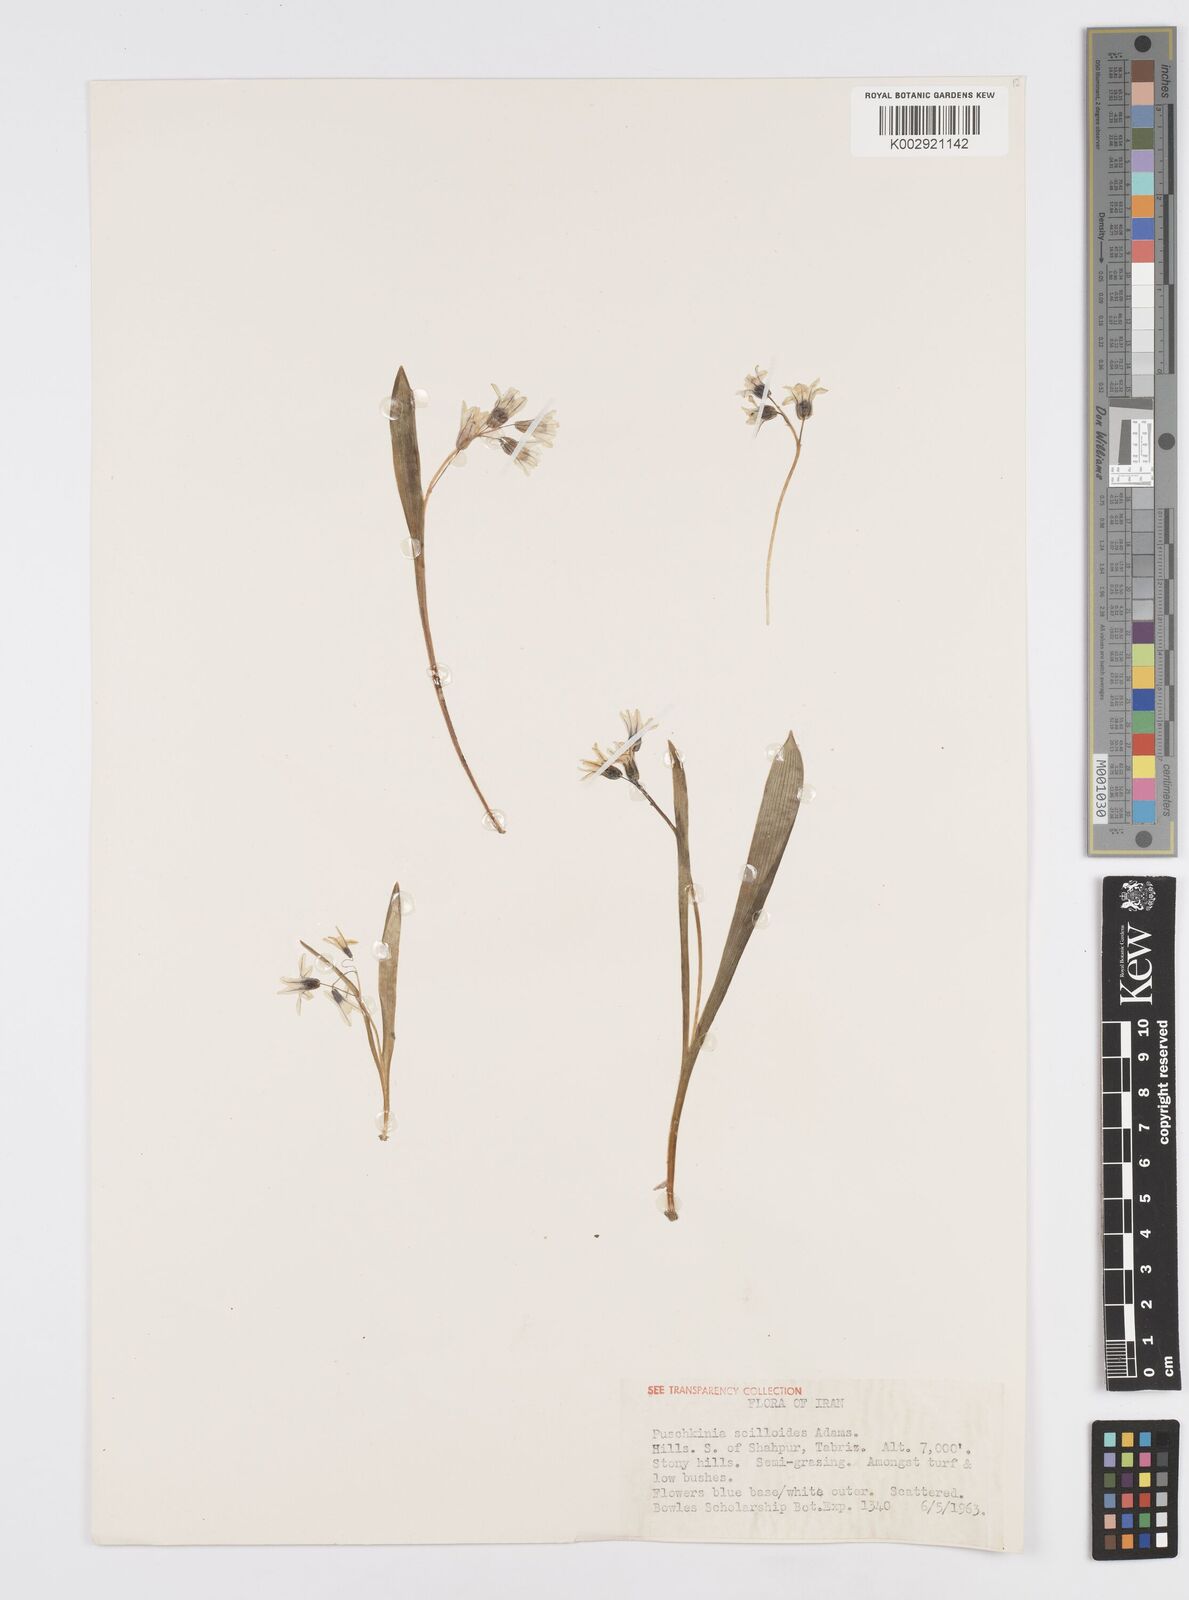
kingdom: Plantae
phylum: Tracheophyta
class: Liliopsida
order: Asparagales
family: Asparagaceae
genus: Puschkinia
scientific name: Puschkinia scilloides
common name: Striped squill
